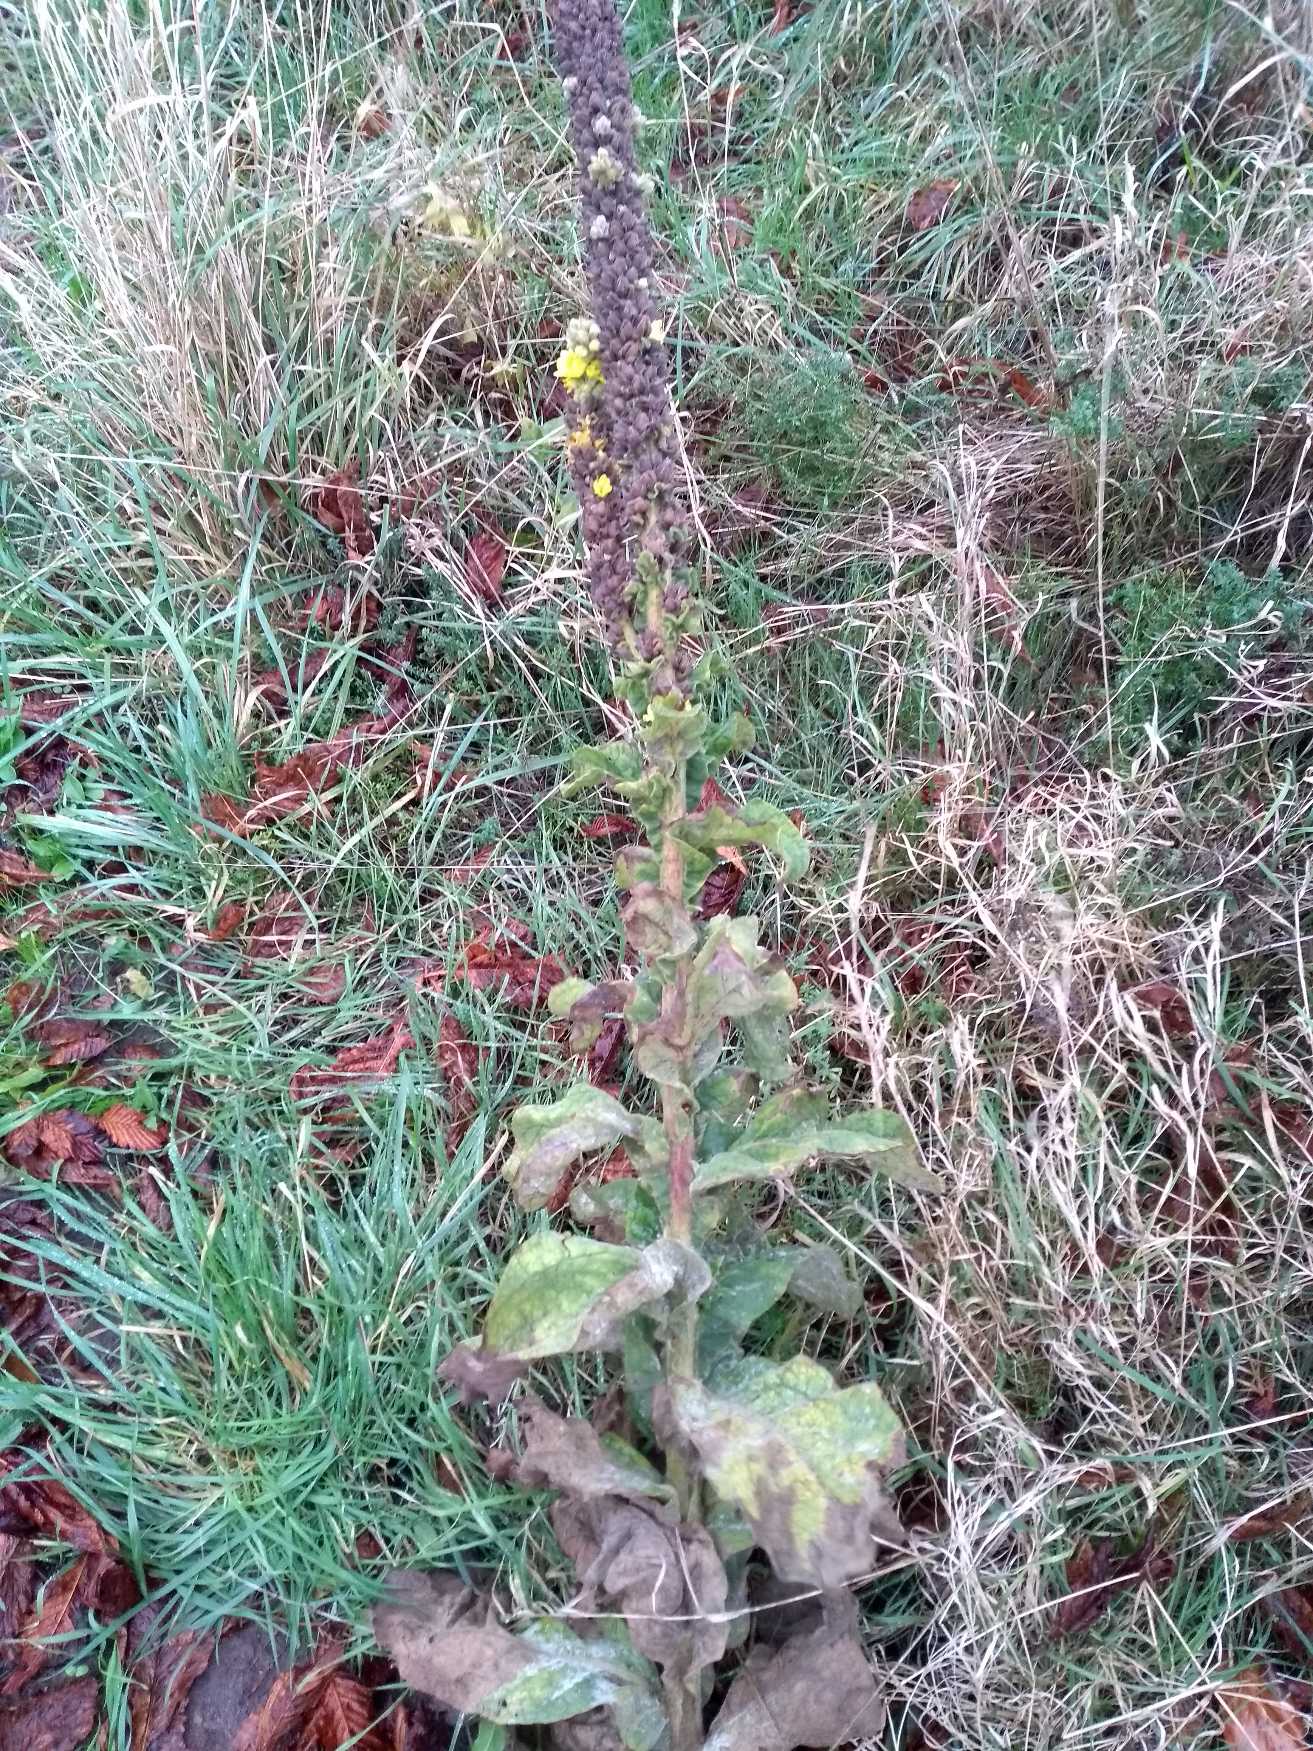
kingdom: Plantae
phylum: Tracheophyta
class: Magnoliopsida
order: Lamiales
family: Scrophulariaceae
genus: Verbascum
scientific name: Verbascum thapsus
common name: Filtbladet kongelys
